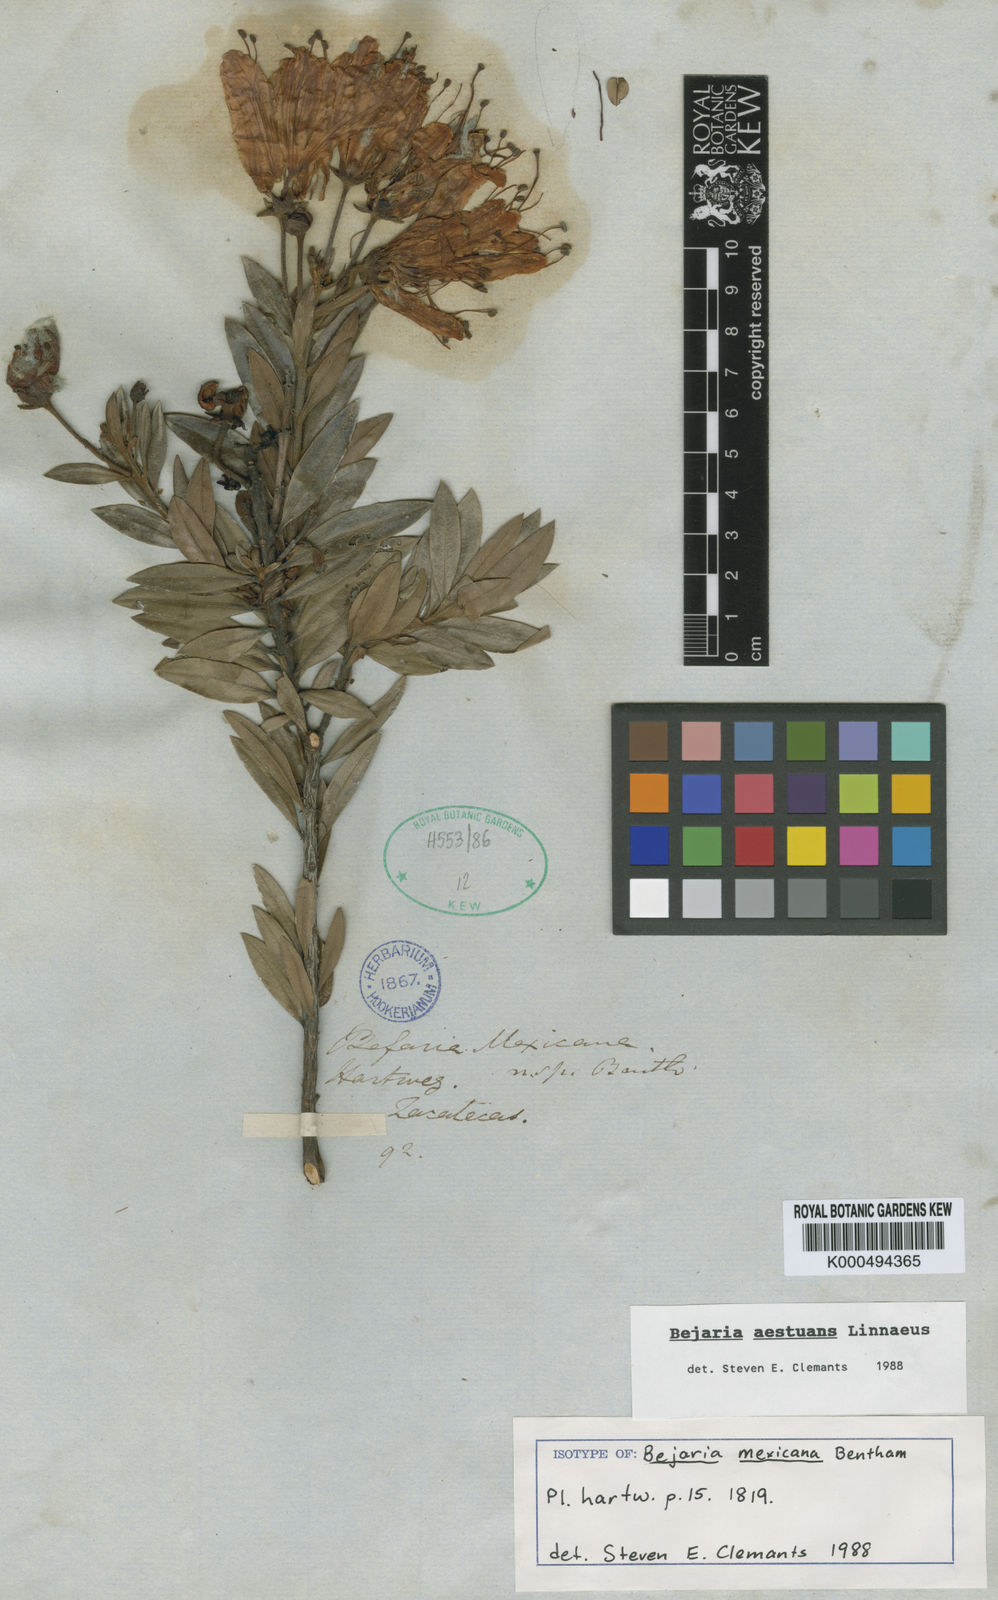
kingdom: Plantae
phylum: Tracheophyta
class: Magnoliopsida
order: Ericales
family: Ericaceae
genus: Bejaria
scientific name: Bejaria
